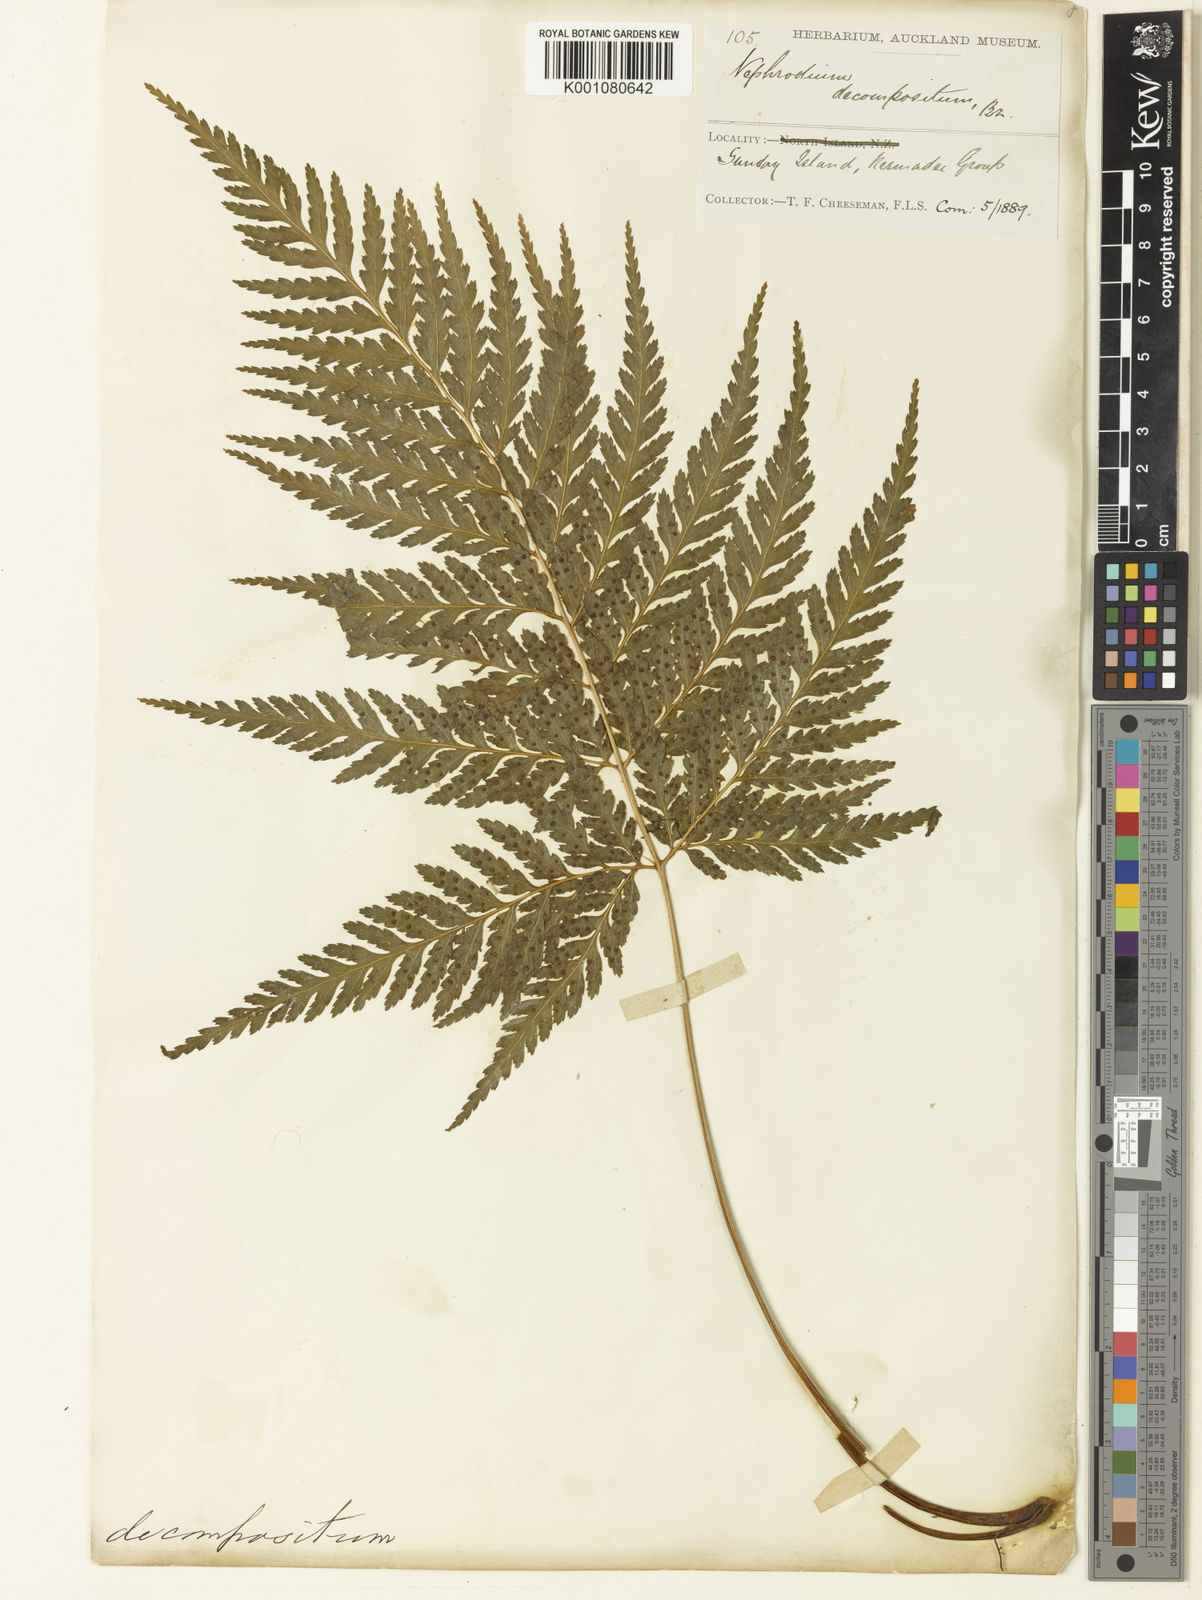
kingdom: Plantae
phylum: Tracheophyta
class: Polypodiopsida
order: Polypodiales
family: Dryopteridaceae
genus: Lastreopsis
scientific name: Lastreopsis velutina
